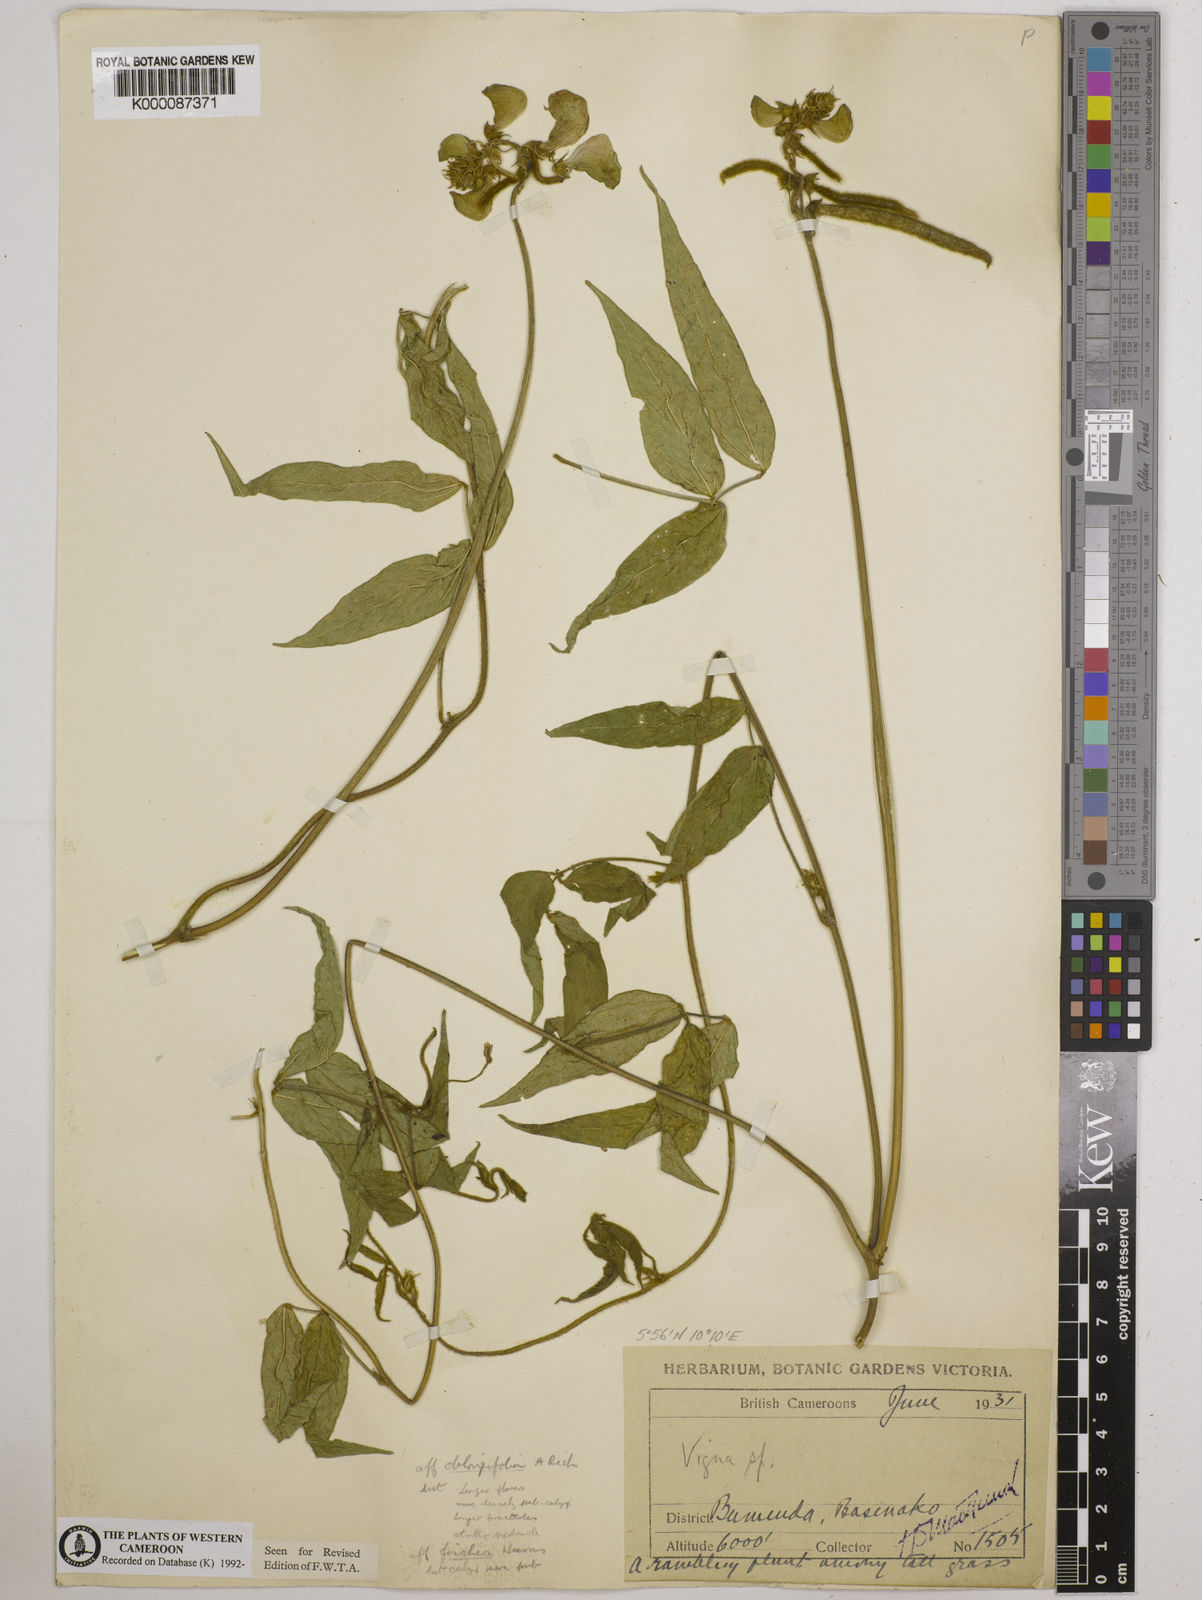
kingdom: Plantae
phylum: Tracheophyta
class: Magnoliopsida
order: Fabales
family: Fabaceae
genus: Vigna
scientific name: Vigna
